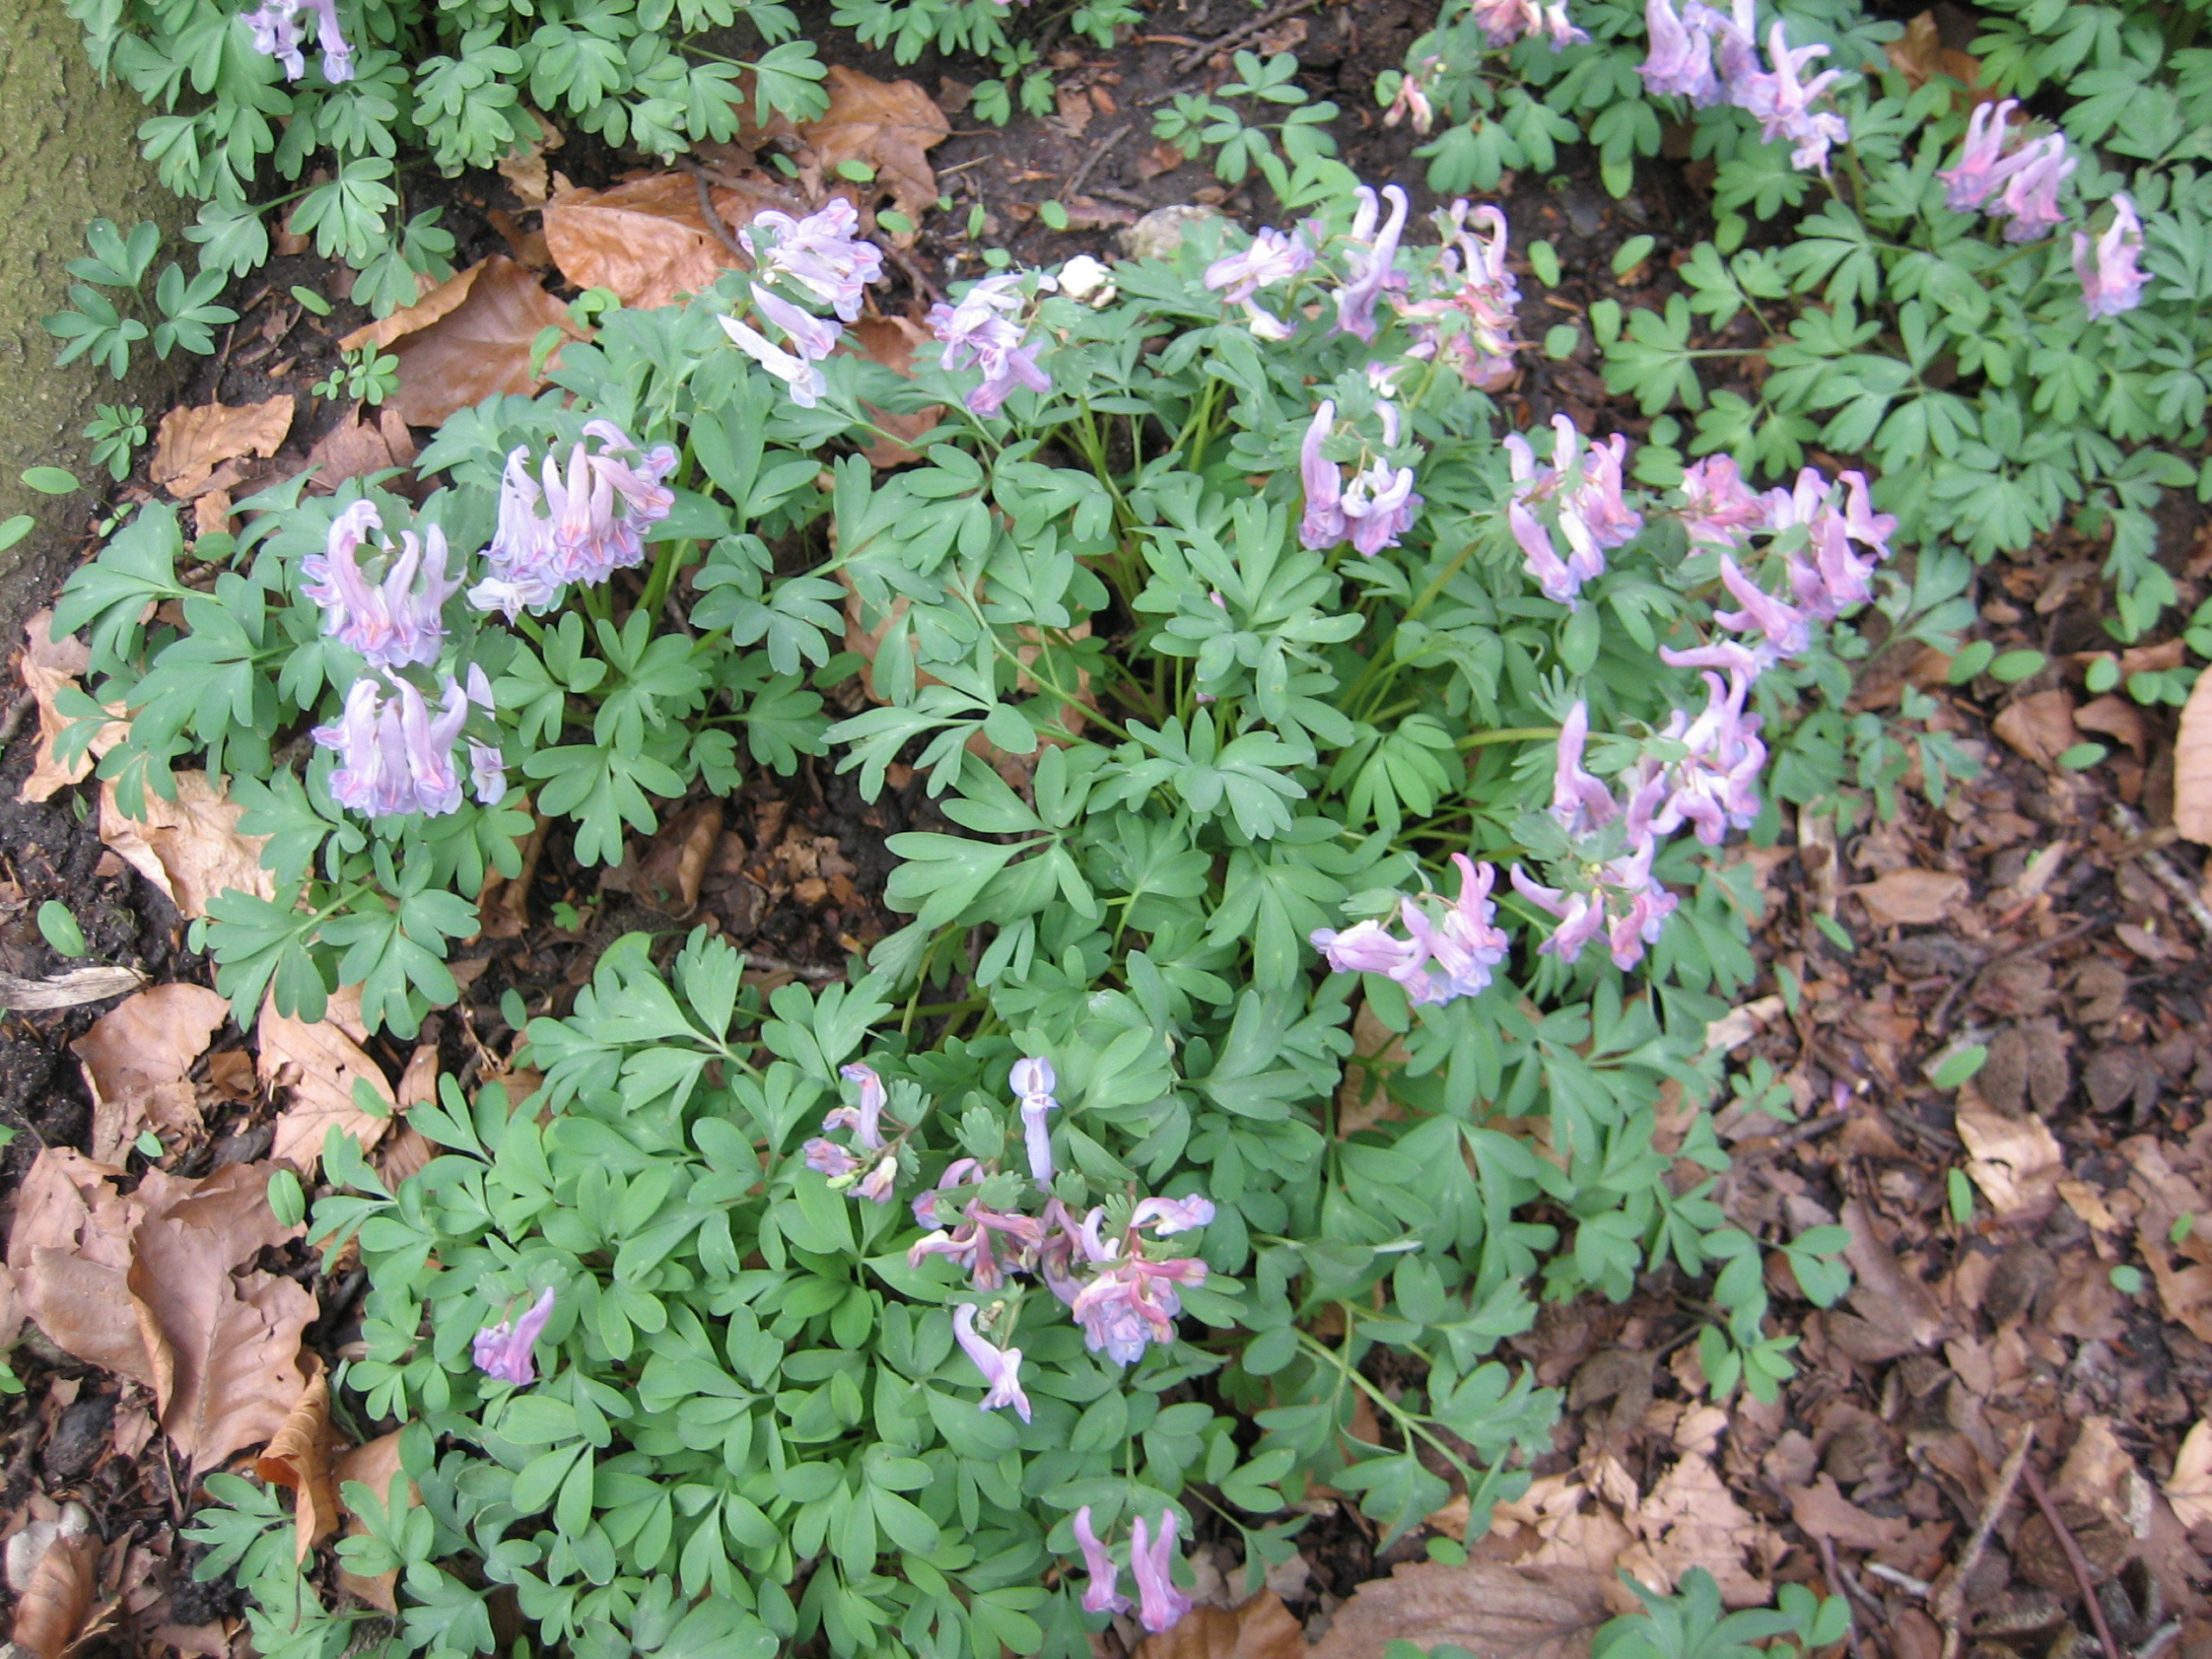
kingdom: Plantae
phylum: Tracheophyta
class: Magnoliopsida
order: Ranunculales
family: Papaveraceae
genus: Corydalis
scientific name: Corydalis solida
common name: Langstilket lærkespore
